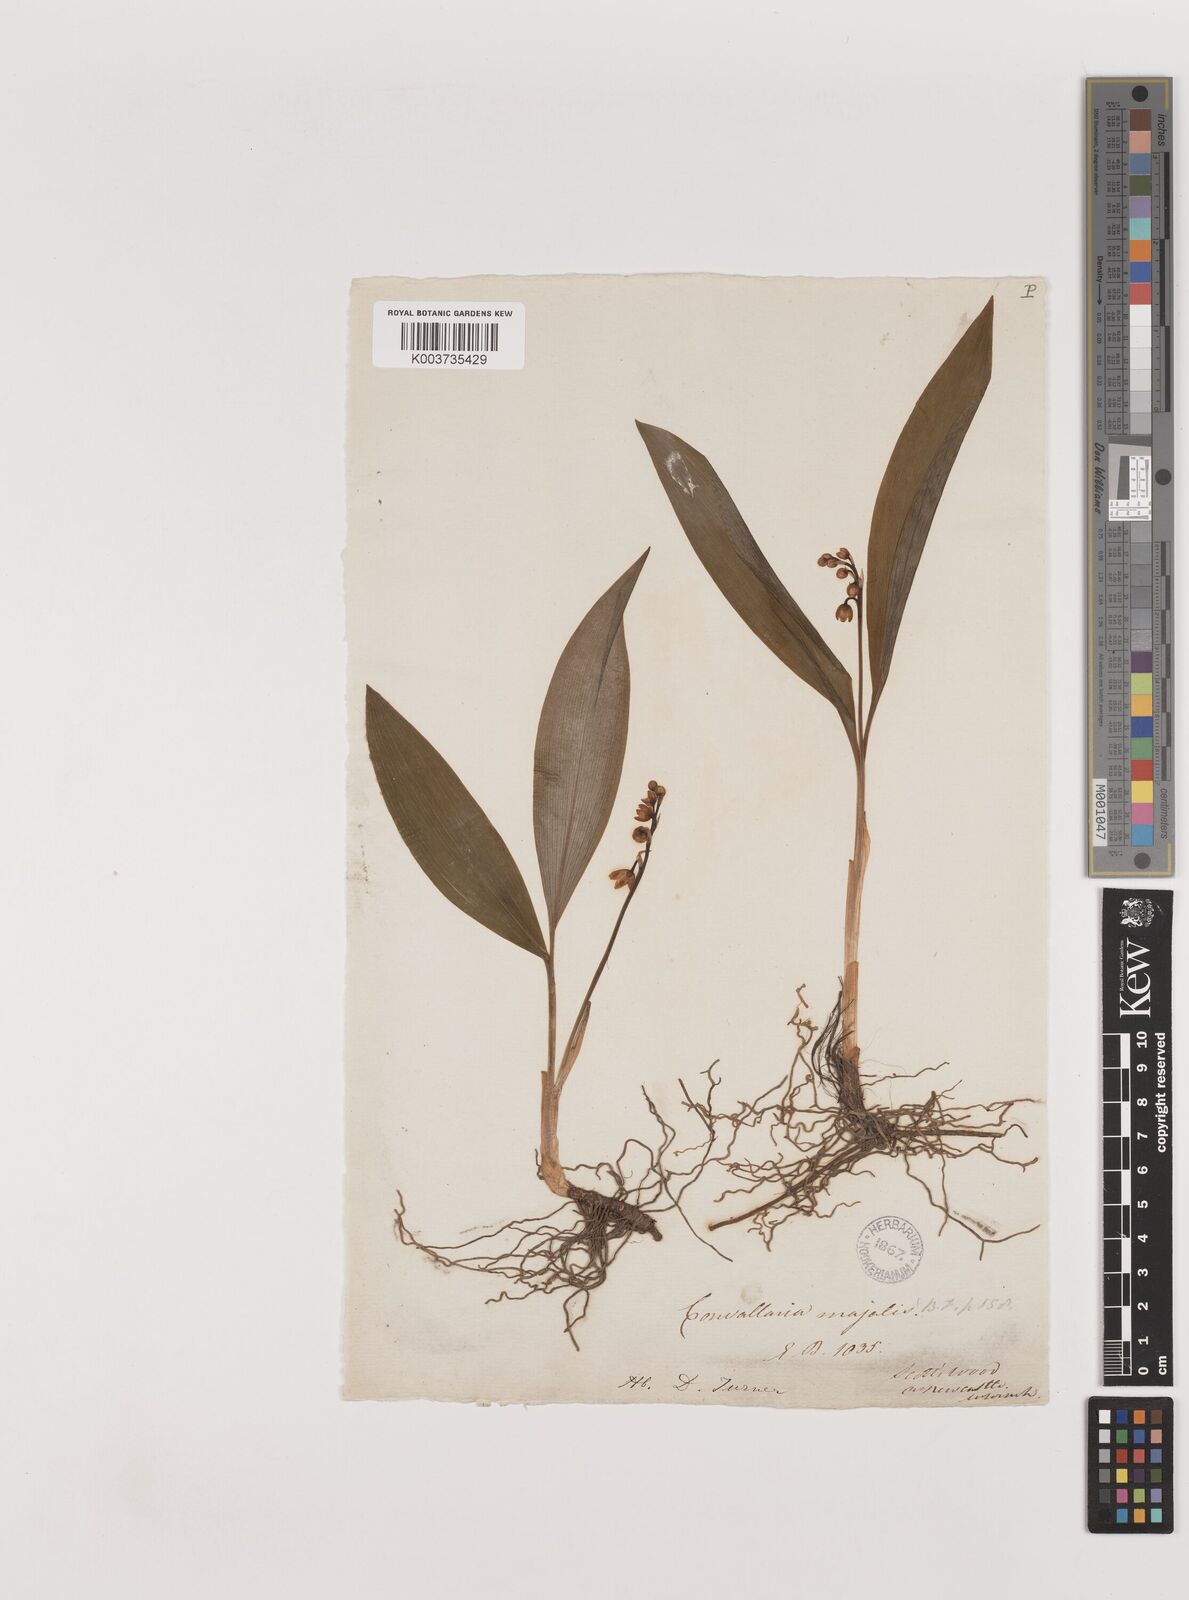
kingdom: Plantae
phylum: Tracheophyta
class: Liliopsida
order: Asparagales
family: Asparagaceae
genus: Convallaria
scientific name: Convallaria majalis
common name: Lily-of-the-valley
